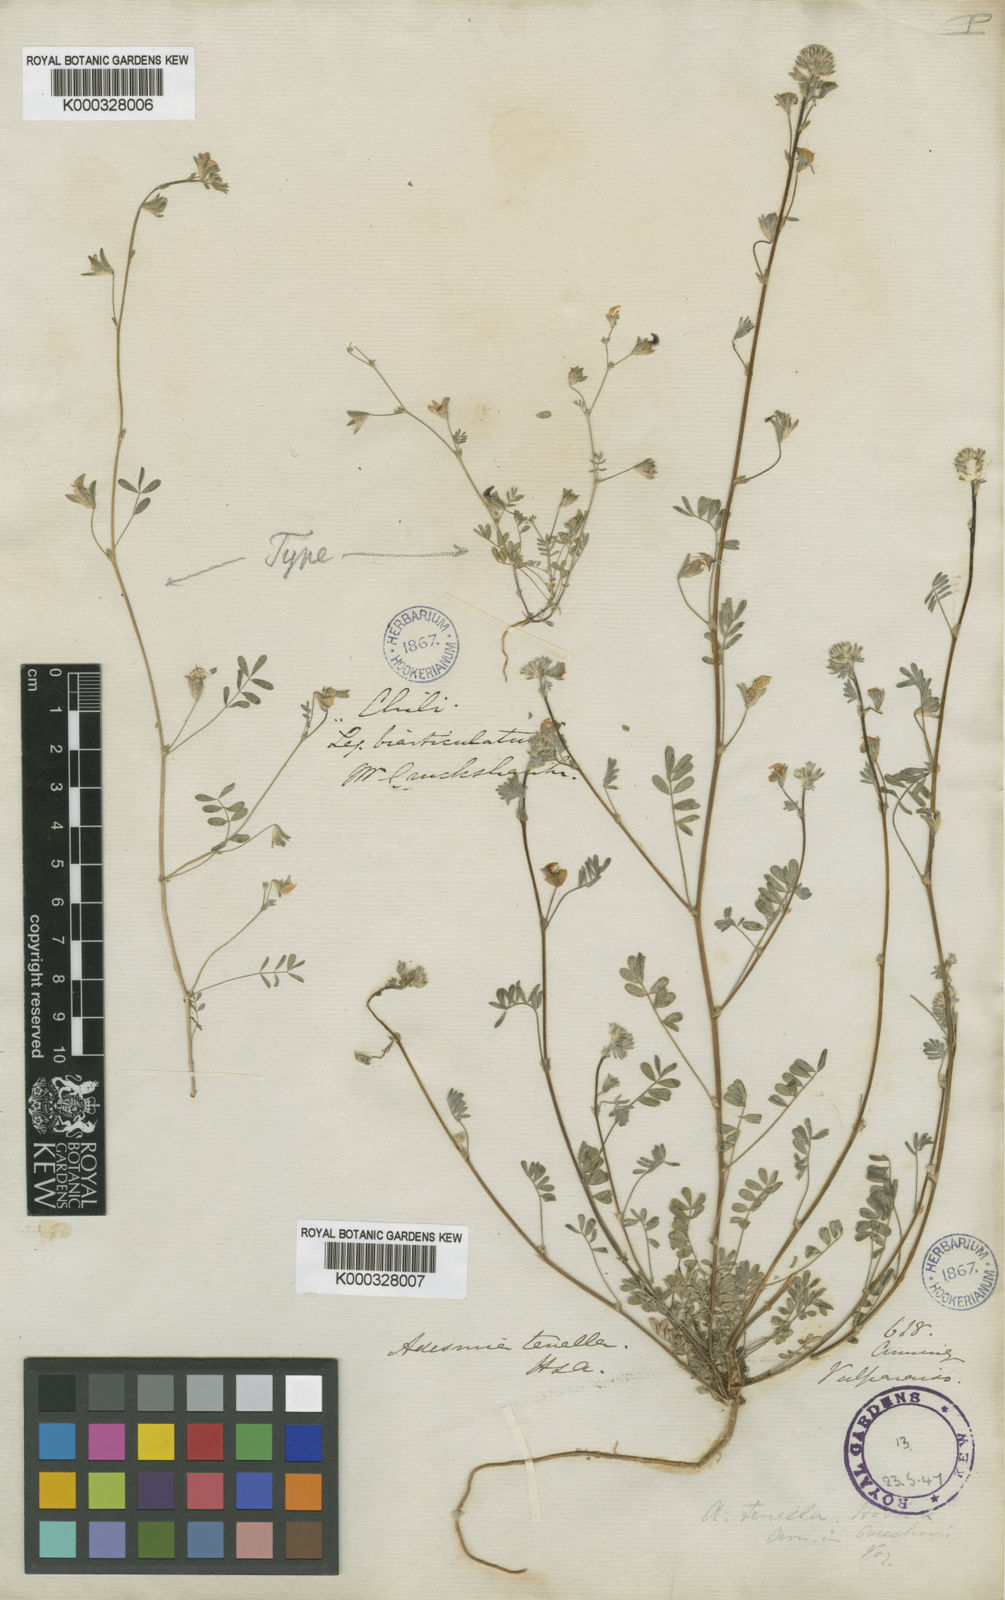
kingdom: Plantae
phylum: Tracheophyta
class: Magnoliopsida
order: Fabales
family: Fabaceae
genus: Adesmia
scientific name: Adesmia tenella
